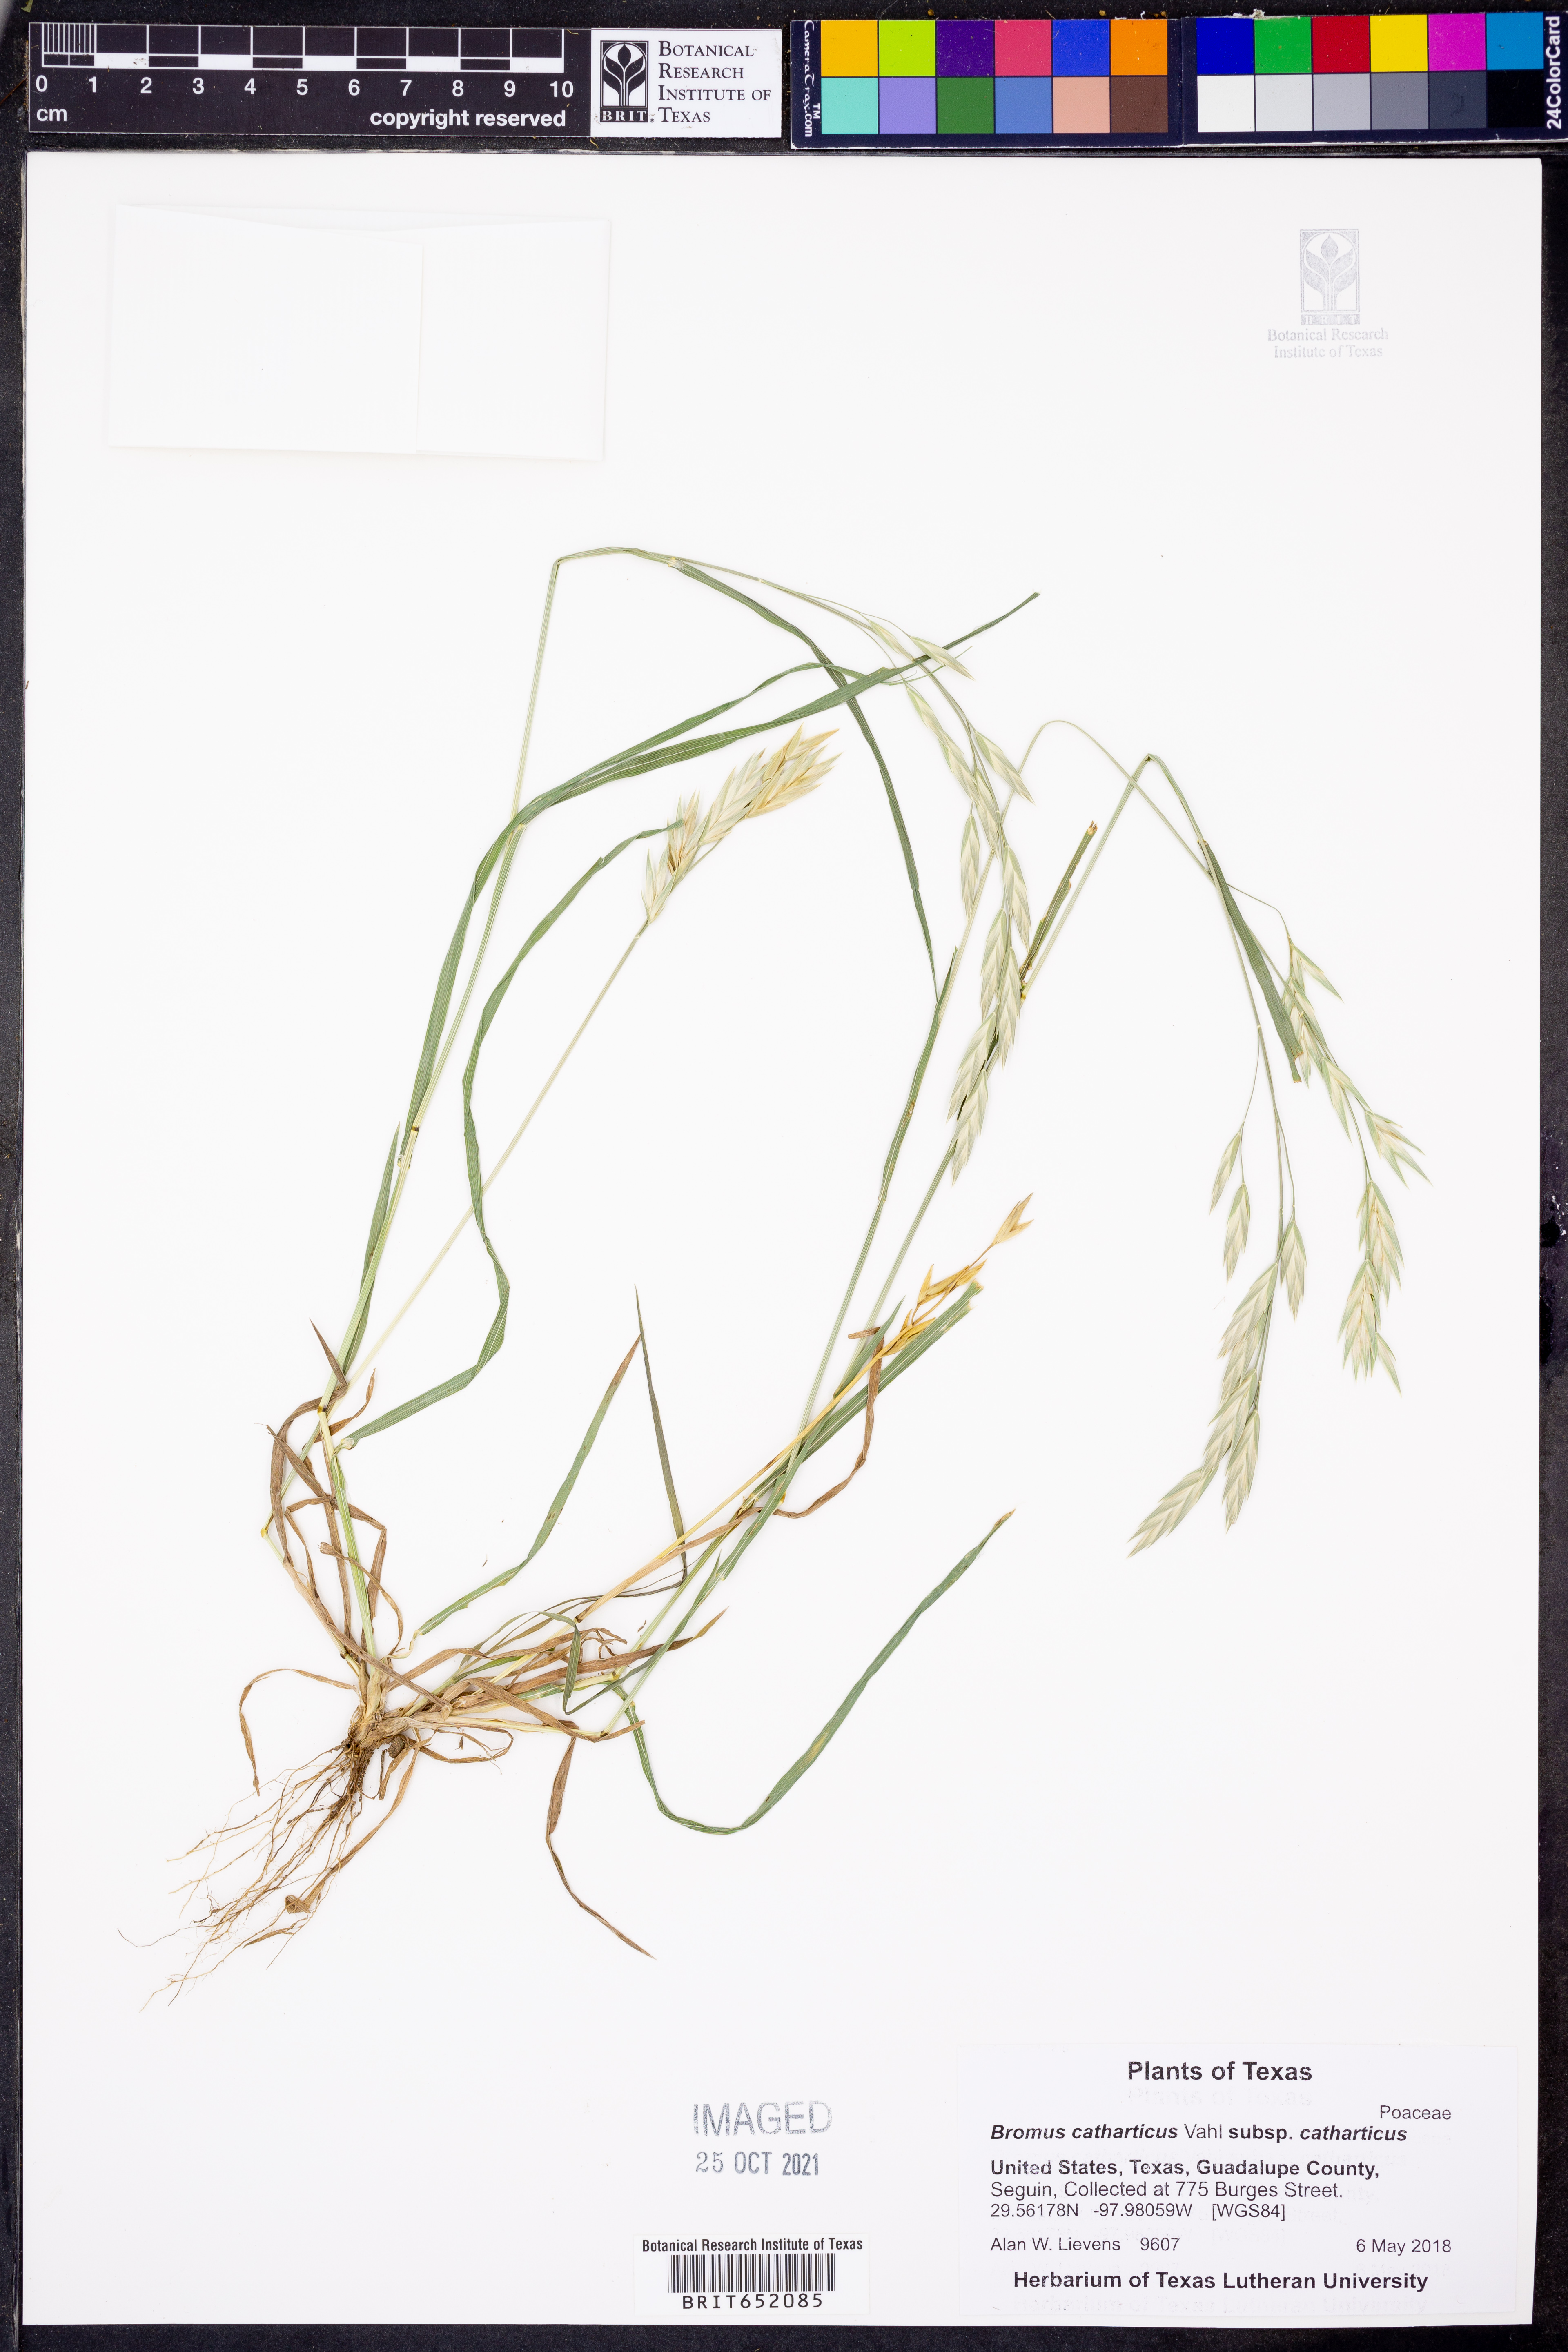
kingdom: Plantae
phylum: Tracheophyta
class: Liliopsida
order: Poales
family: Poaceae
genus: Bromus
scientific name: Bromus catharticus
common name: Rescuegrass
